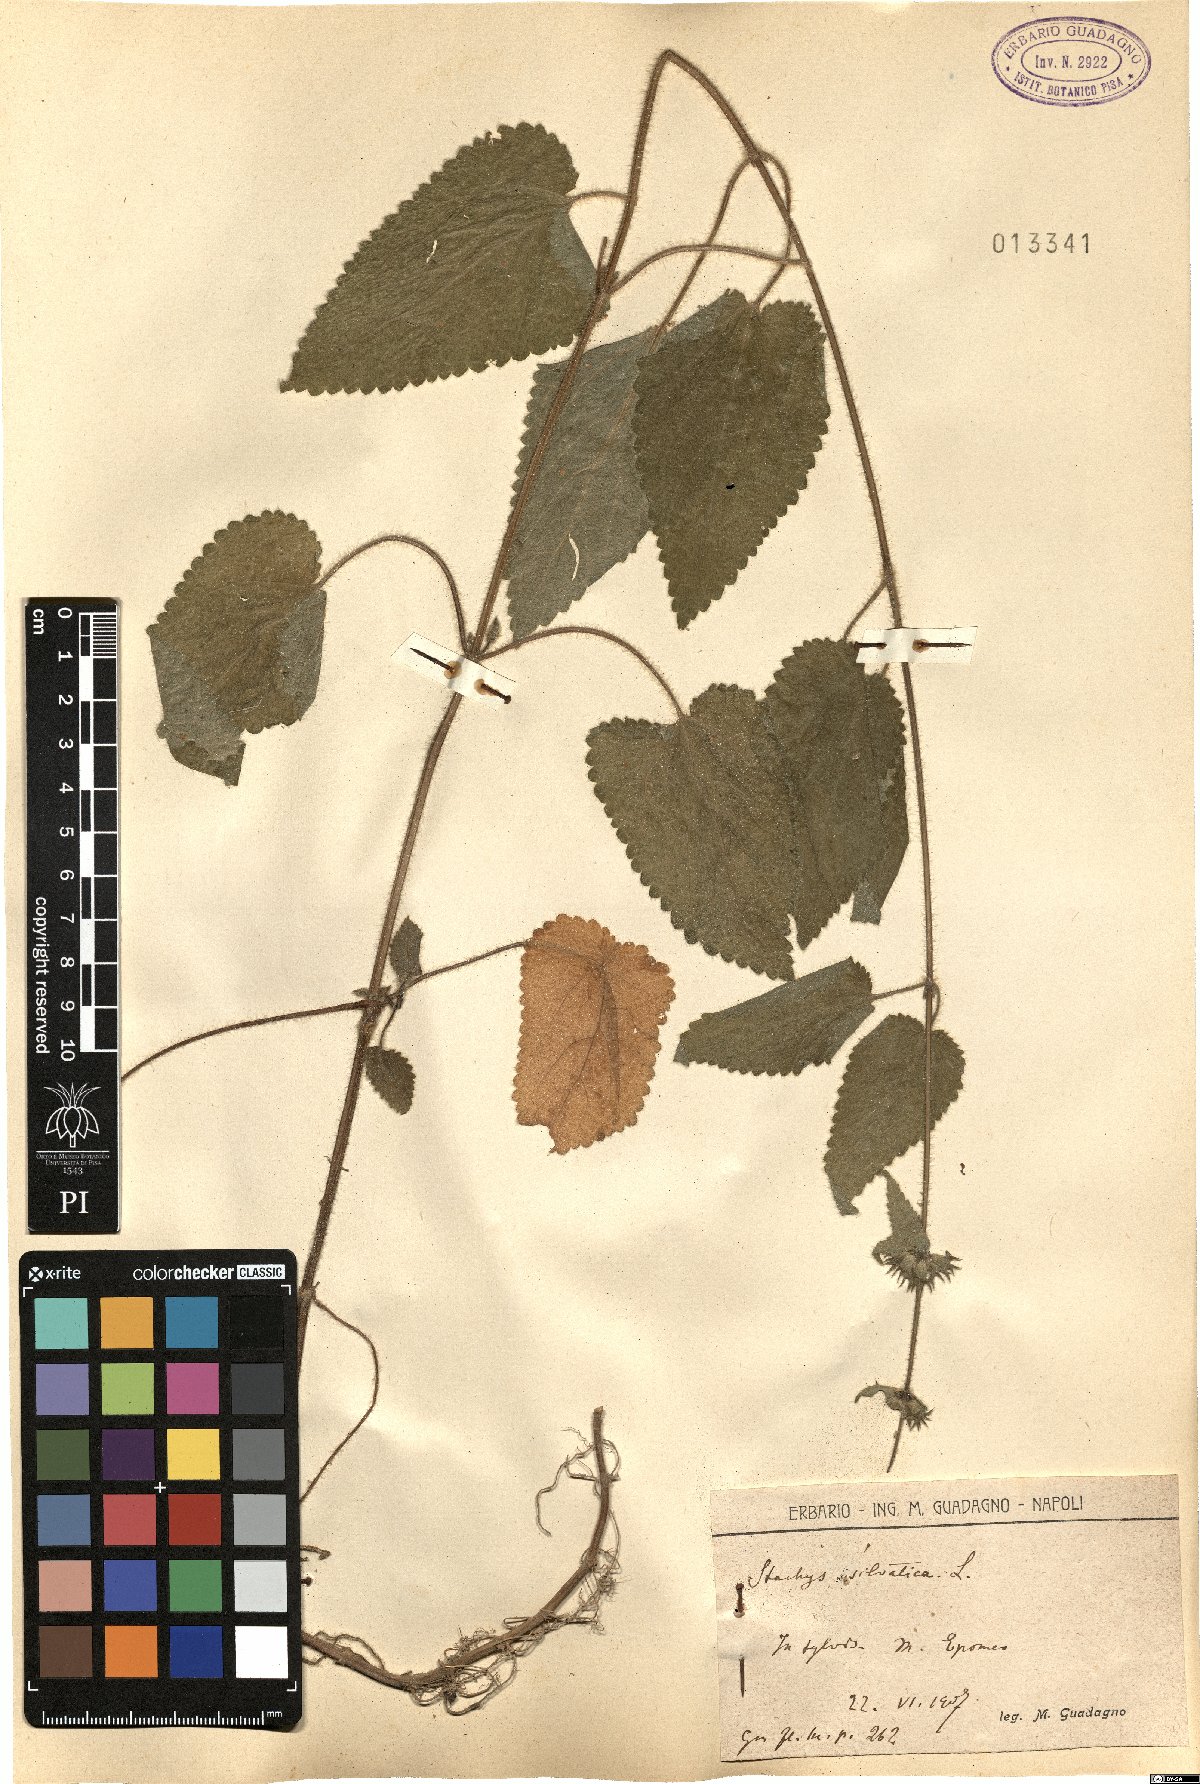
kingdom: Plantae
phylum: Tracheophyta
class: Magnoliopsida
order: Lamiales
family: Lamiaceae
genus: Stachys
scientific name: Stachys sylvatica
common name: Hedge woundwort
